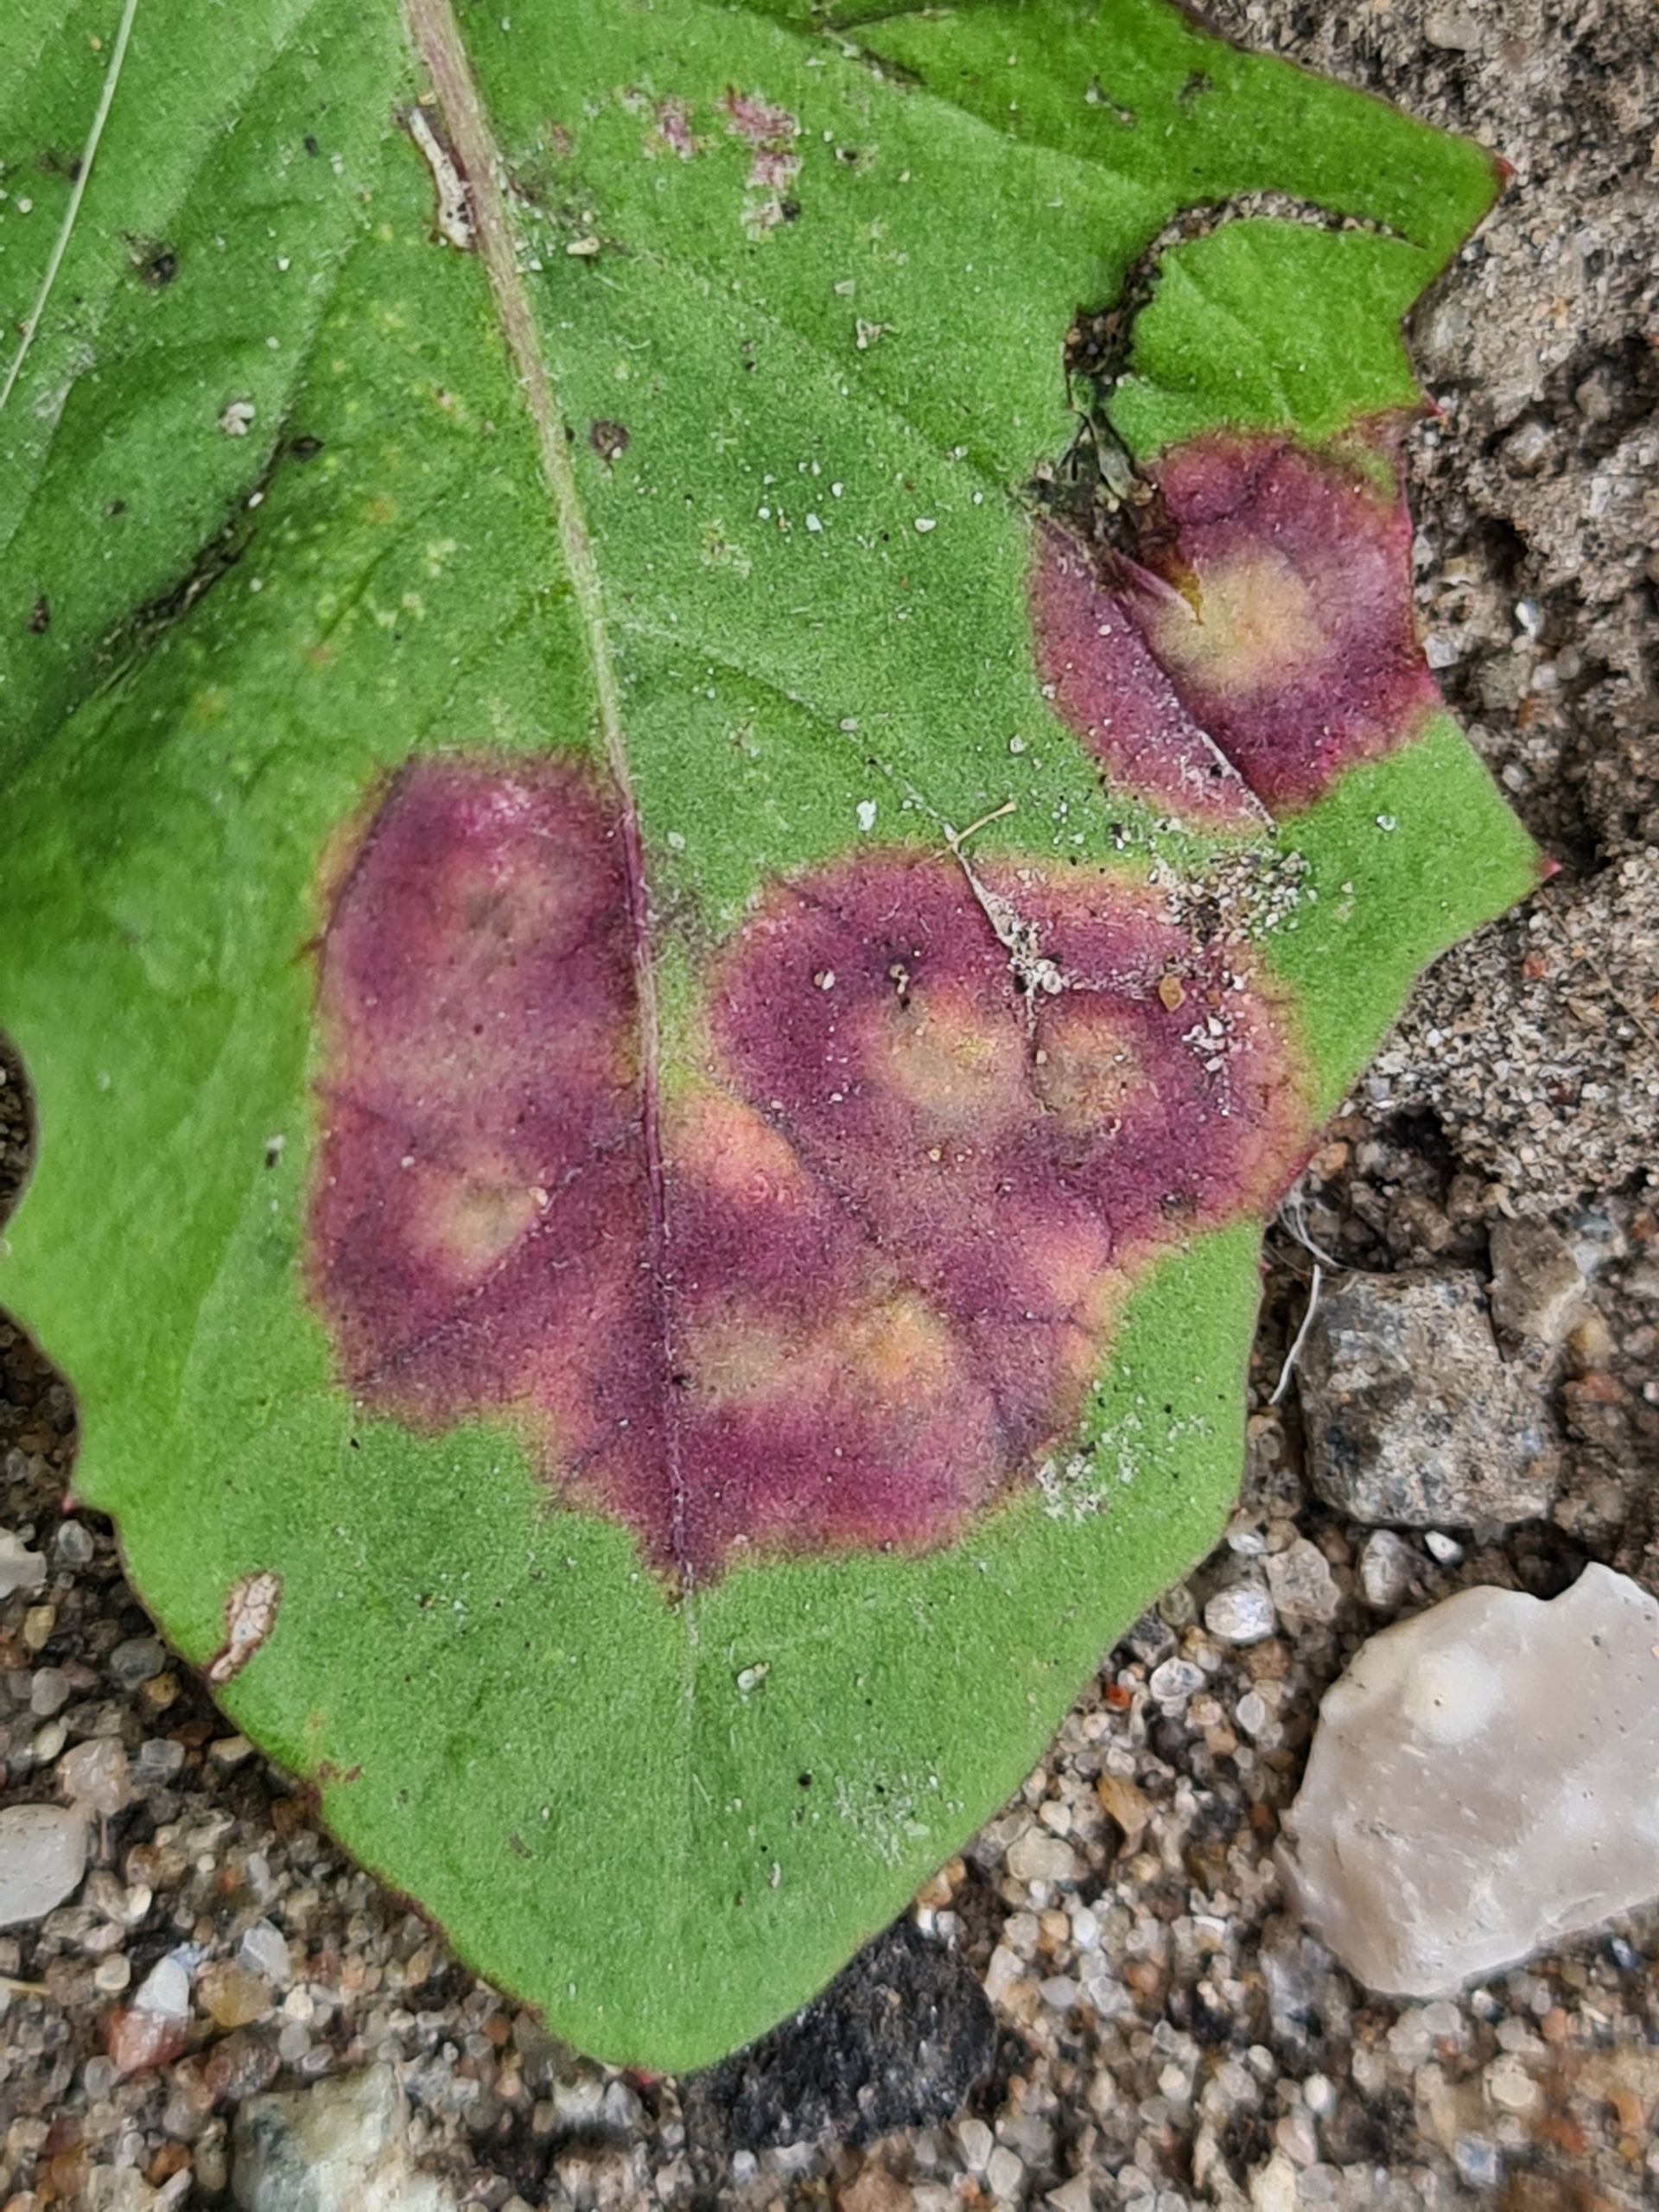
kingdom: Animalia
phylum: Arthropoda
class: Insecta
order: Diptera
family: Cecidomyiidae
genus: Cystiphora
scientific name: Cystiphora taraxaci
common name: Mælkebøttegalmyg
